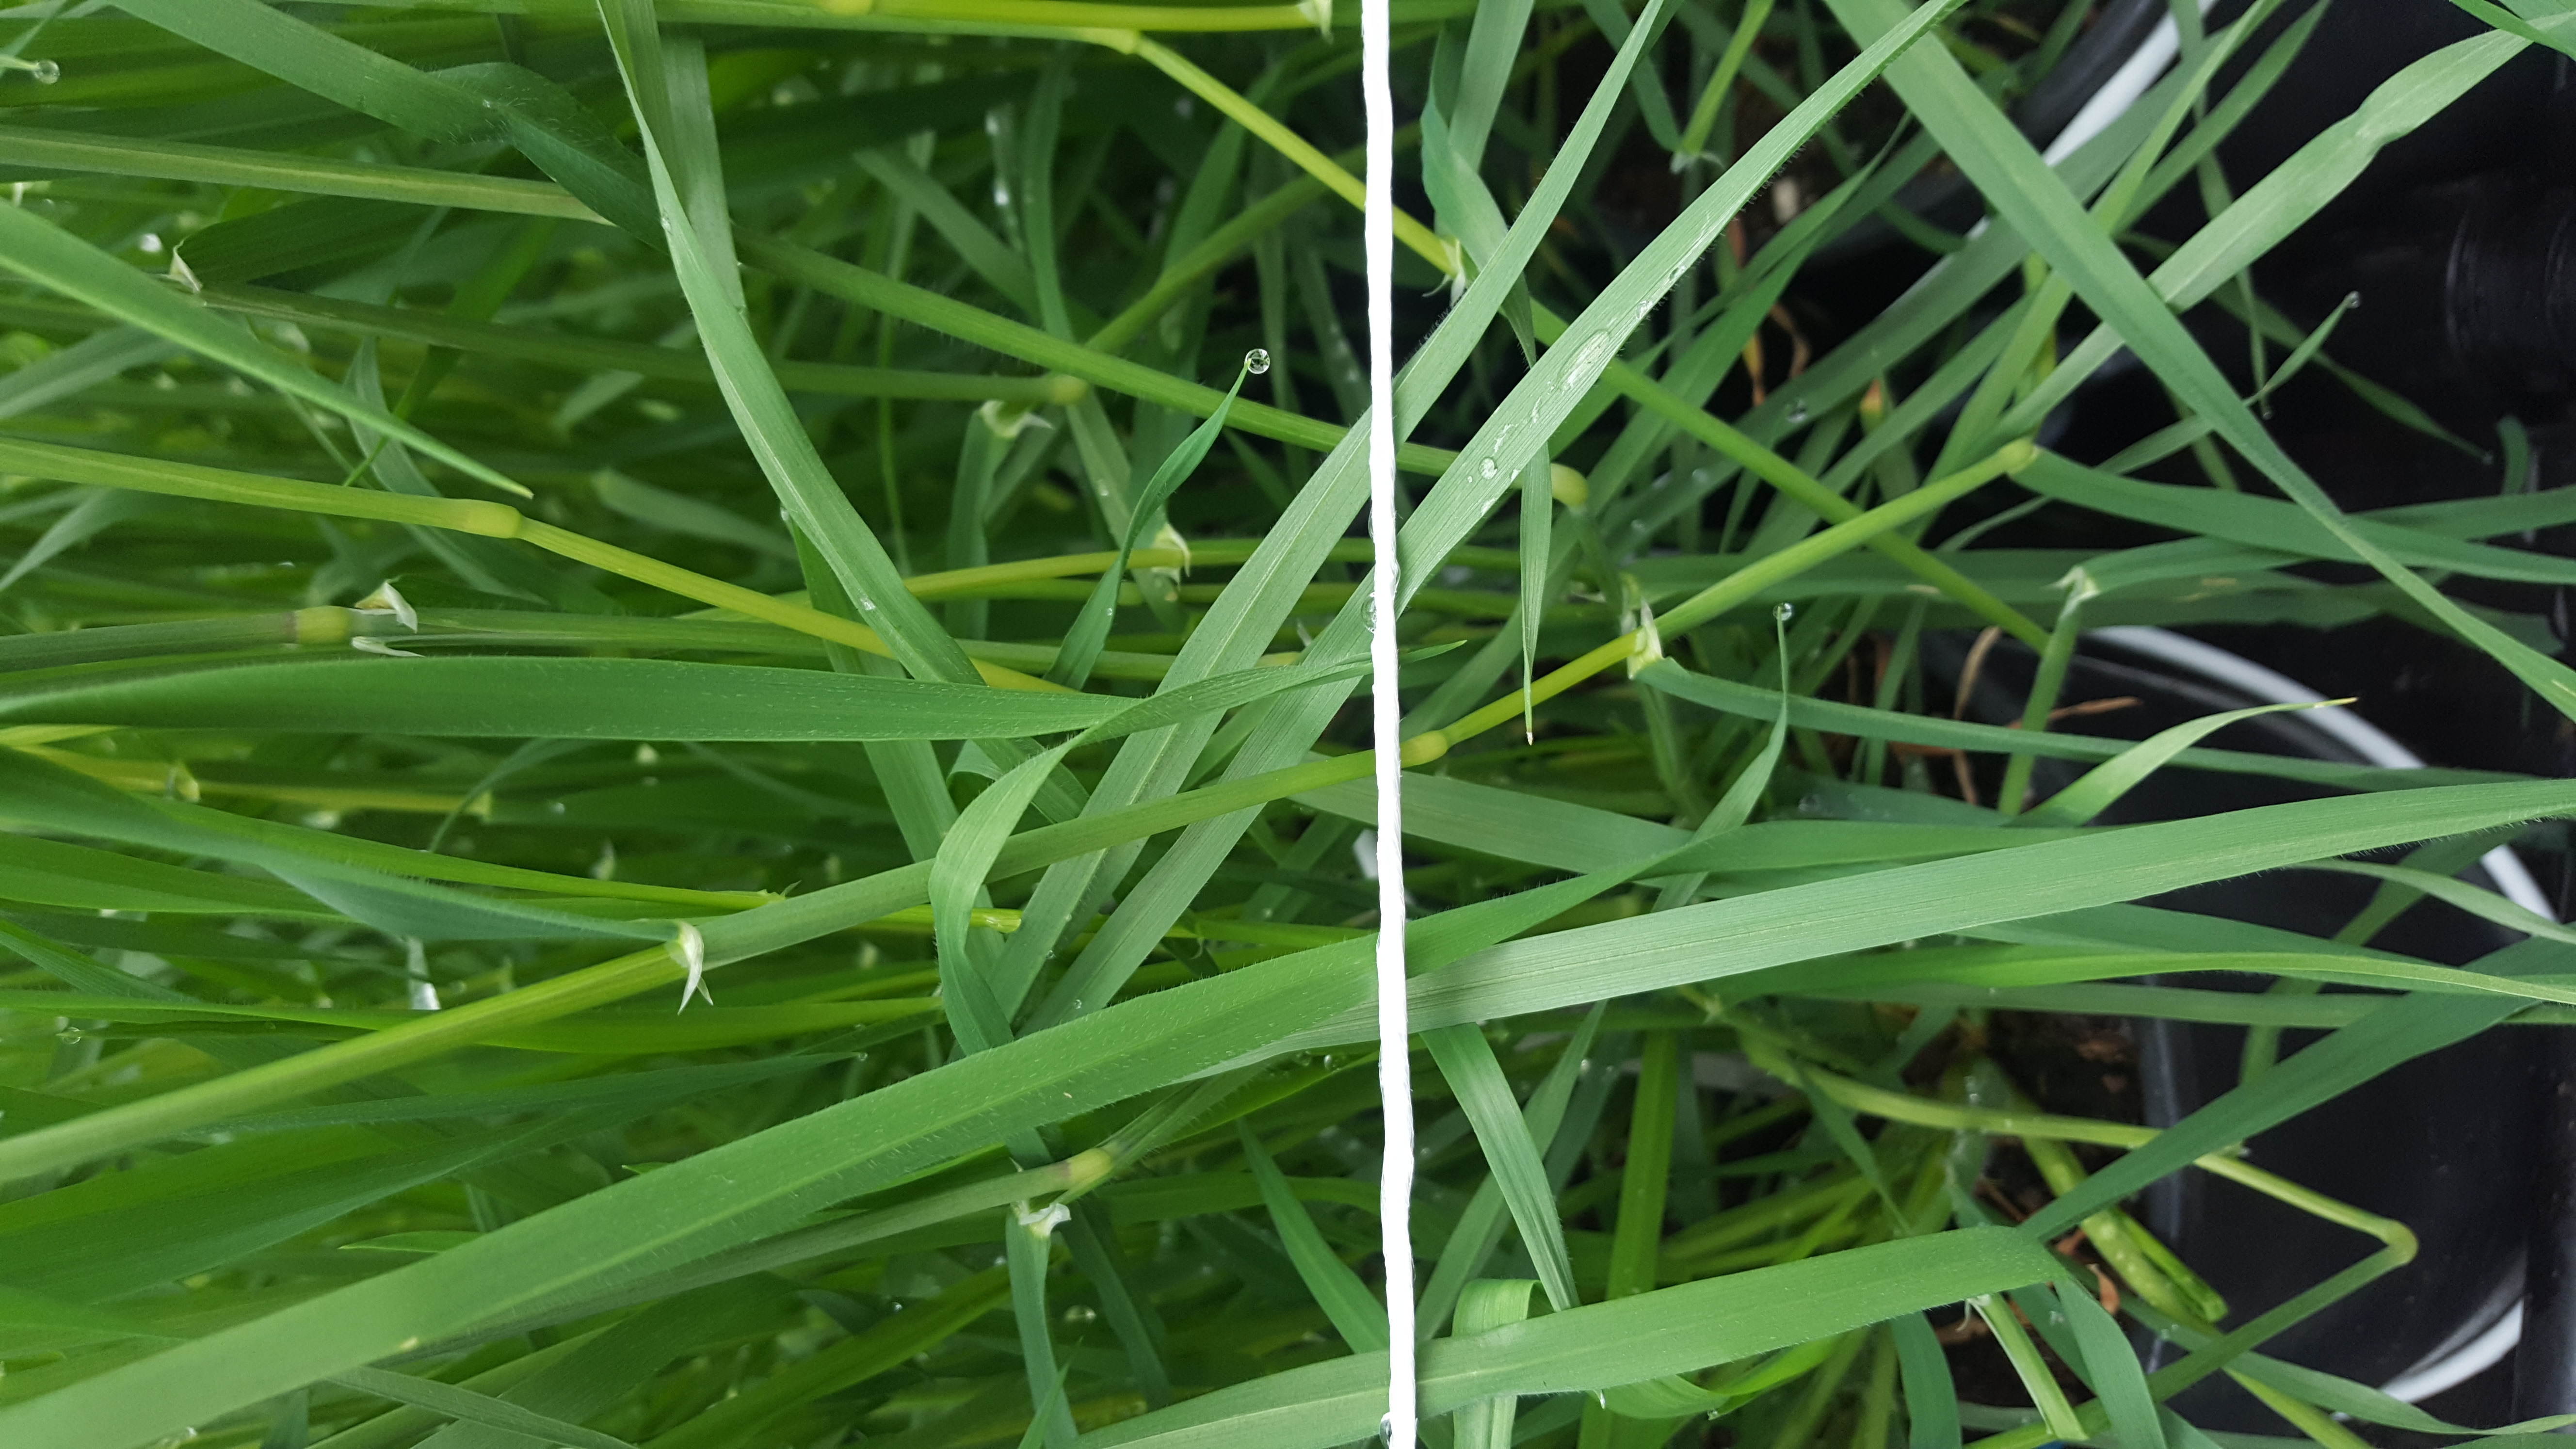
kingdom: Plantae
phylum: Tracheophyta
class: Liliopsida
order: Poales
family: Poaceae
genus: Hordeum
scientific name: Hordeum murinum
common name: Wall barley
